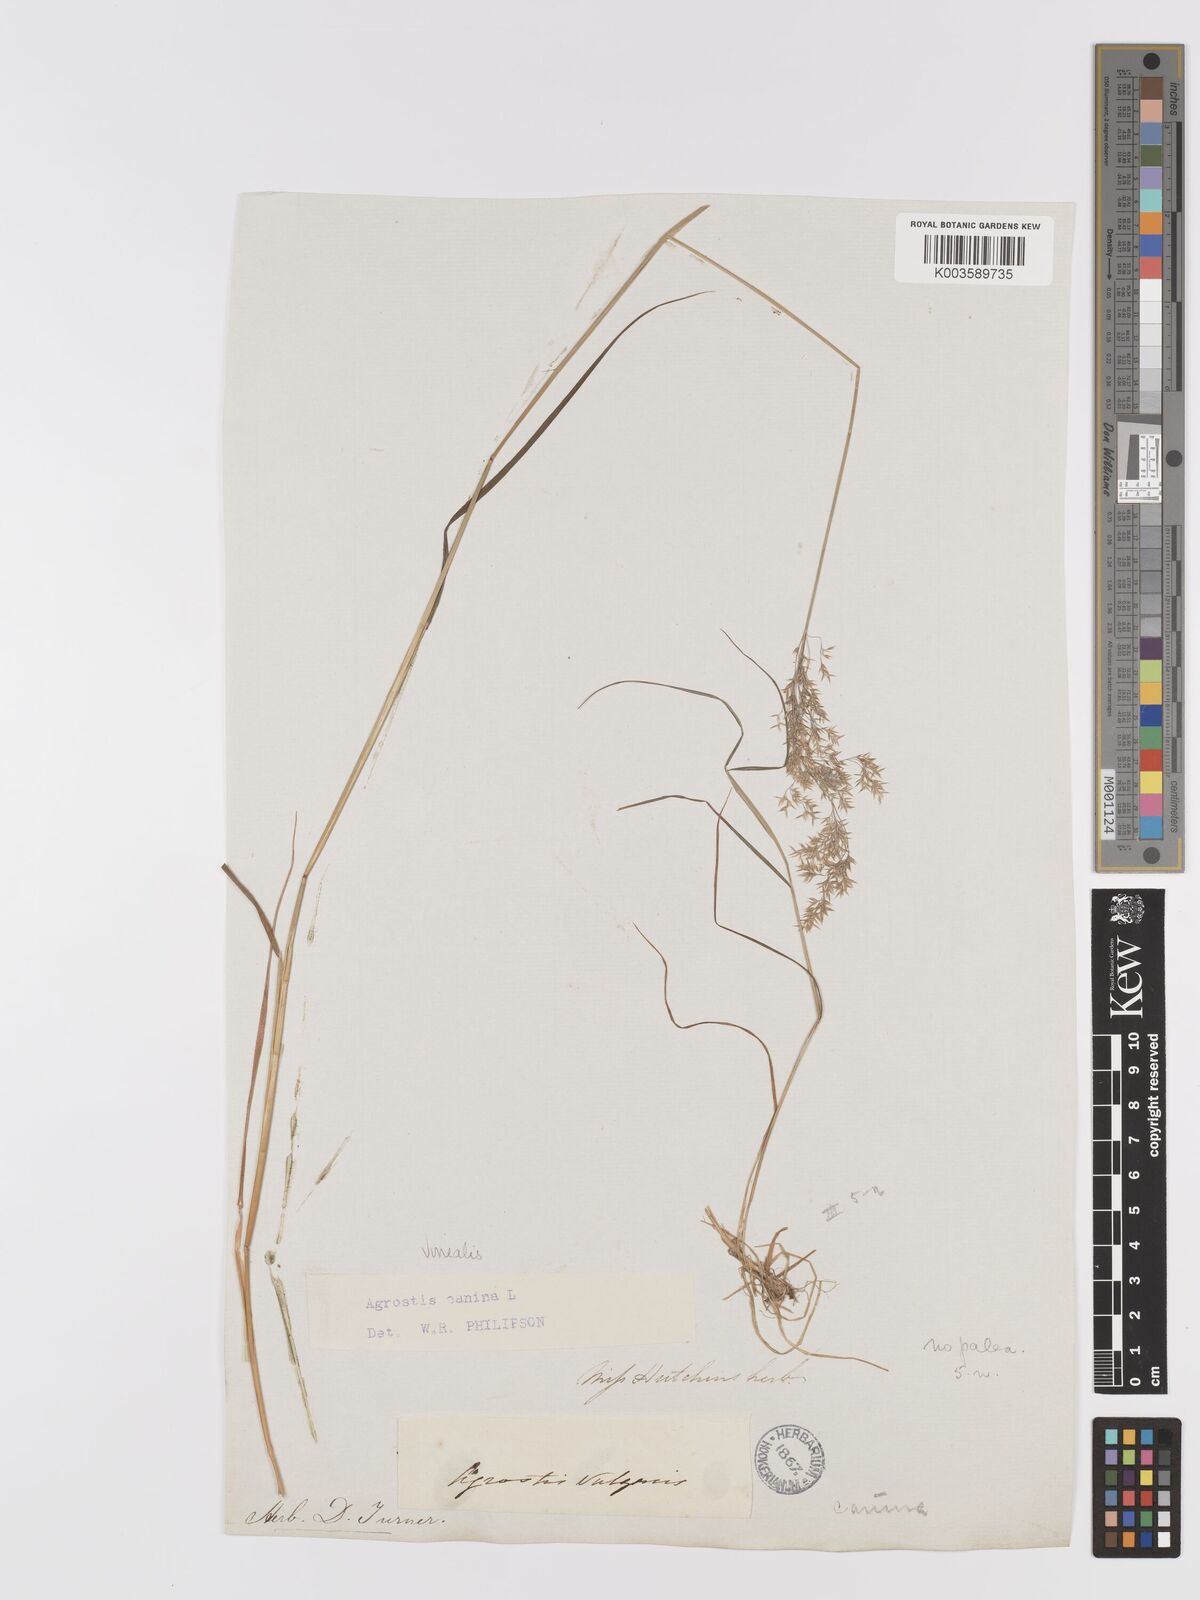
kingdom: Plantae
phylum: Tracheophyta
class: Liliopsida
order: Poales
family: Poaceae
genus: Agrostis
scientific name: Agrostis
